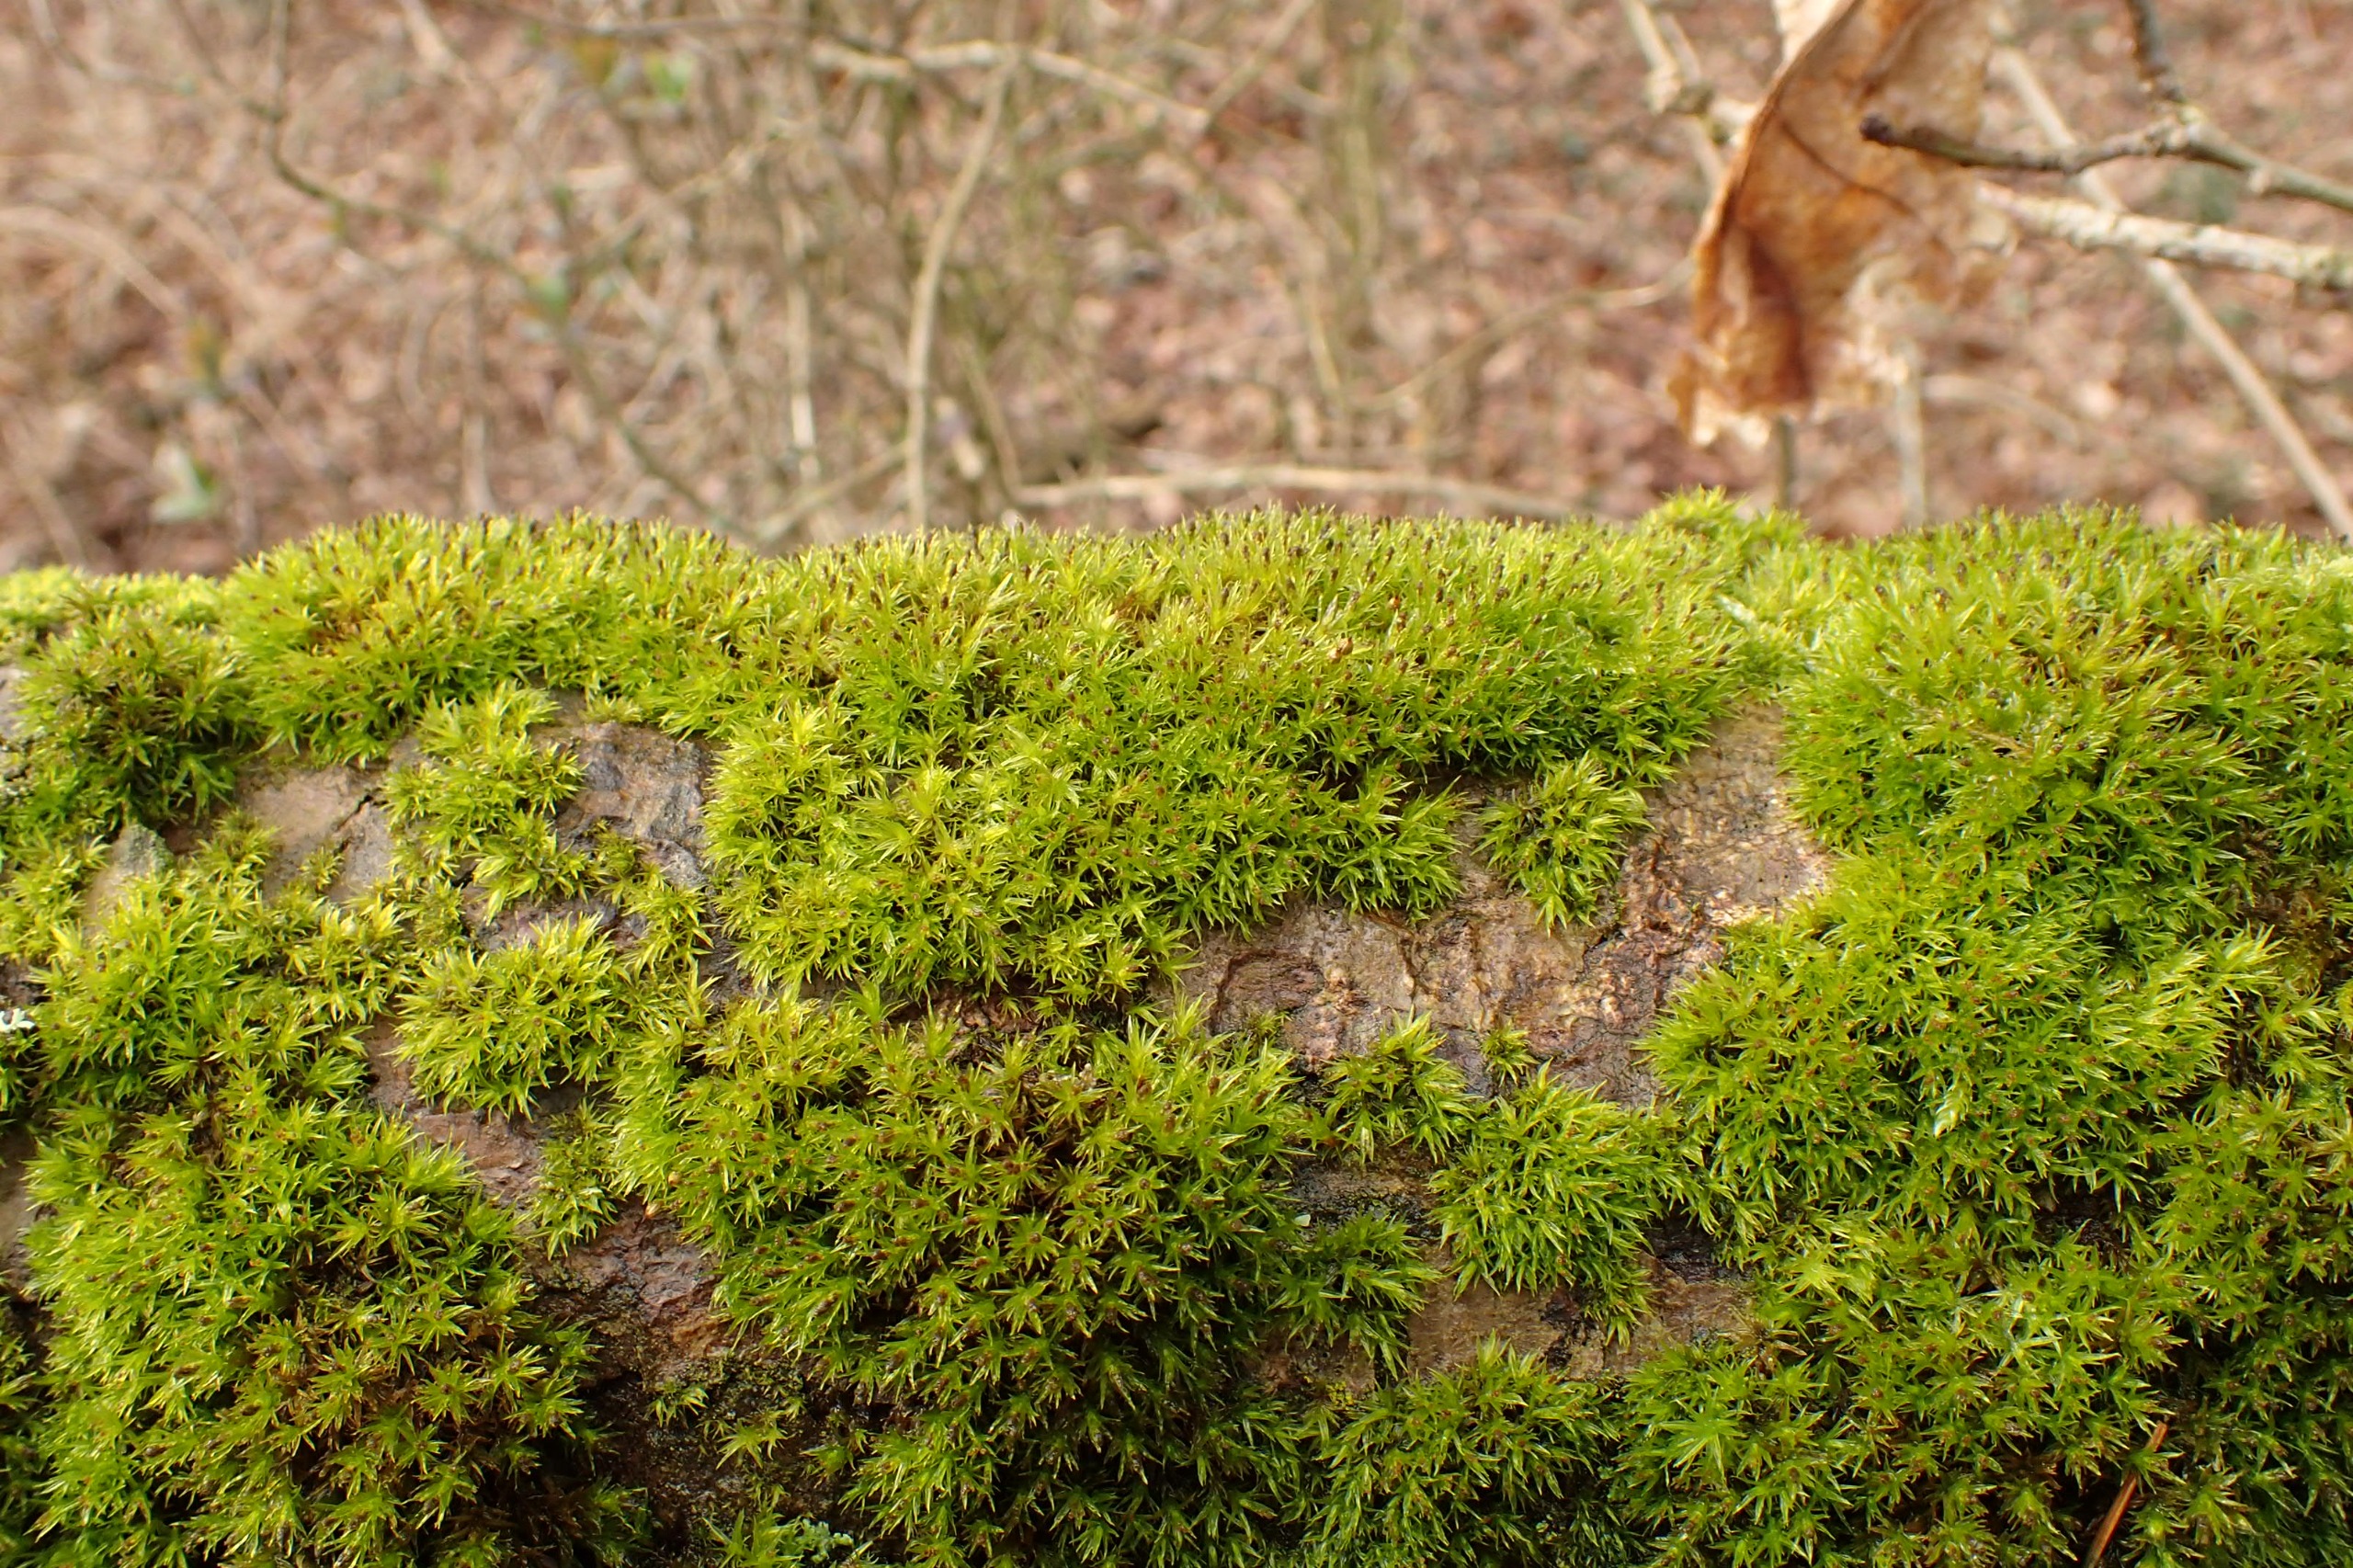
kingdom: Plantae
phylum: Bryophyta
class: Bryopsida
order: Orthotrichales
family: Orthotrichaceae
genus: Plenogemma
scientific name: Plenogemma phyllantha
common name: Stor låddenhætte
